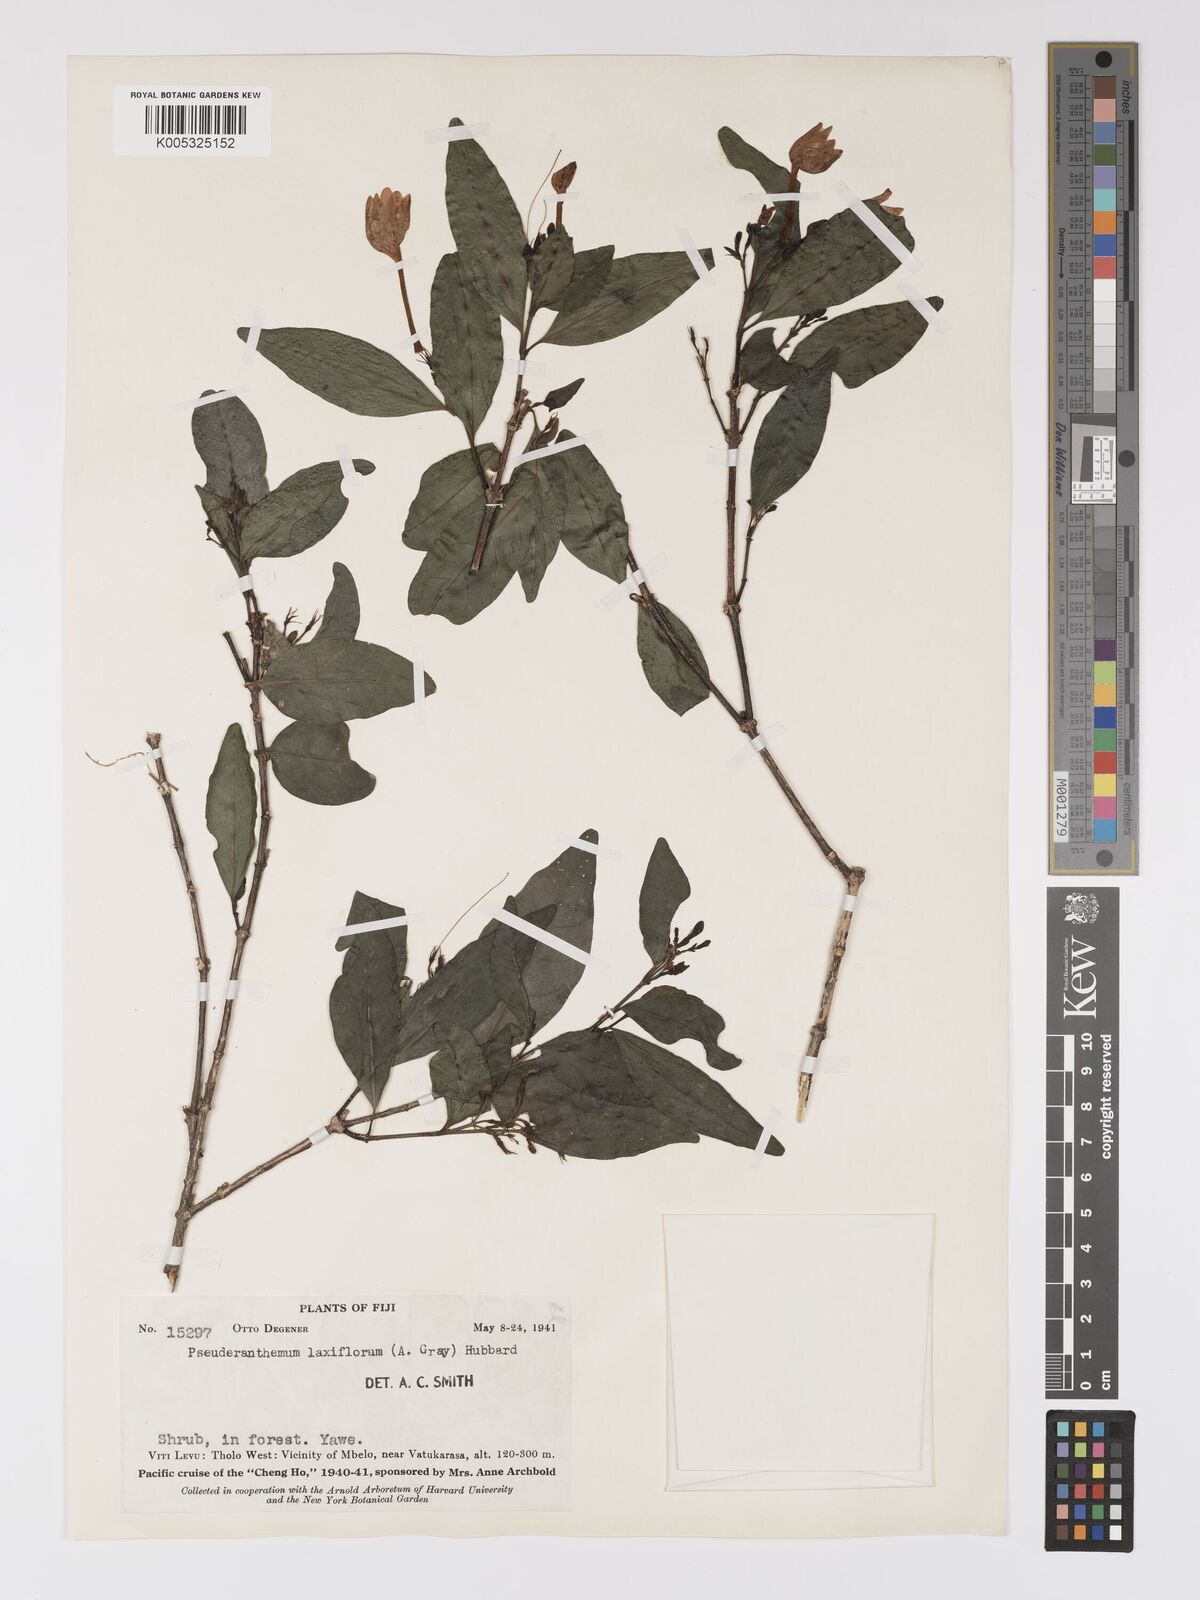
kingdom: Plantae
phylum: Tracheophyta
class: Magnoliopsida
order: Lamiales
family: Acanthaceae
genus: Pseuderanthemum
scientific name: Pseuderanthemum laxiflorum
